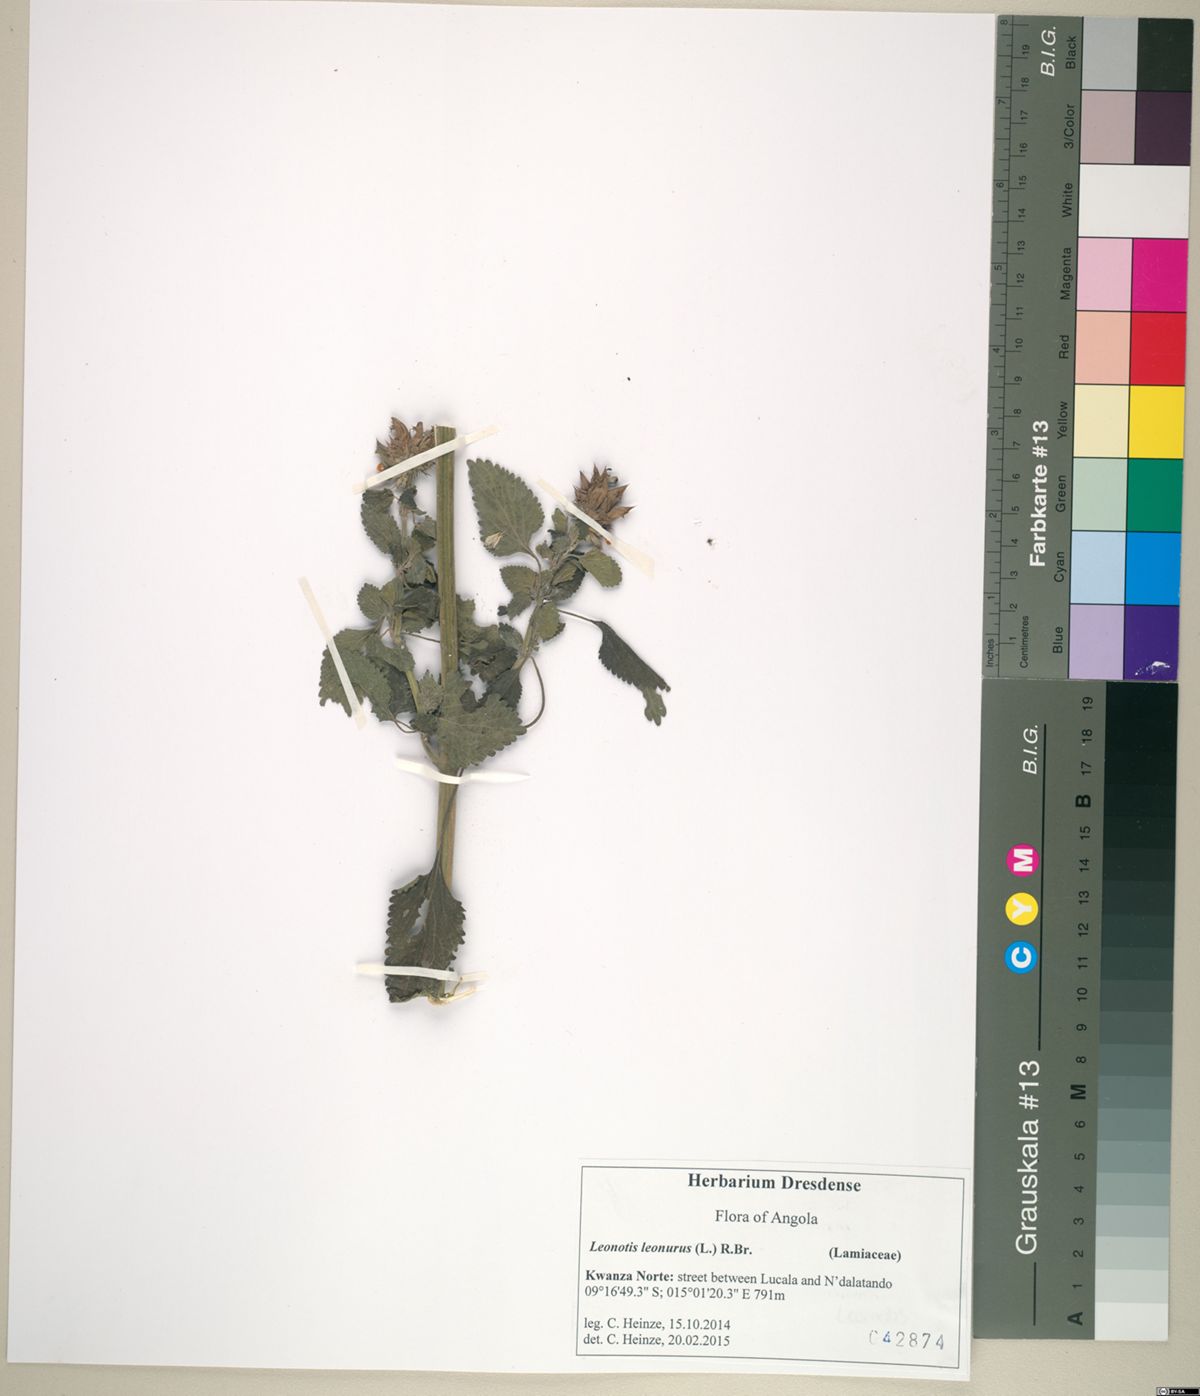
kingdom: Plantae
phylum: Tracheophyta
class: Magnoliopsida
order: Lamiales
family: Lamiaceae
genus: Leonotis
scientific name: Leonotis nepetifolia
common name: Christmas candlestick
